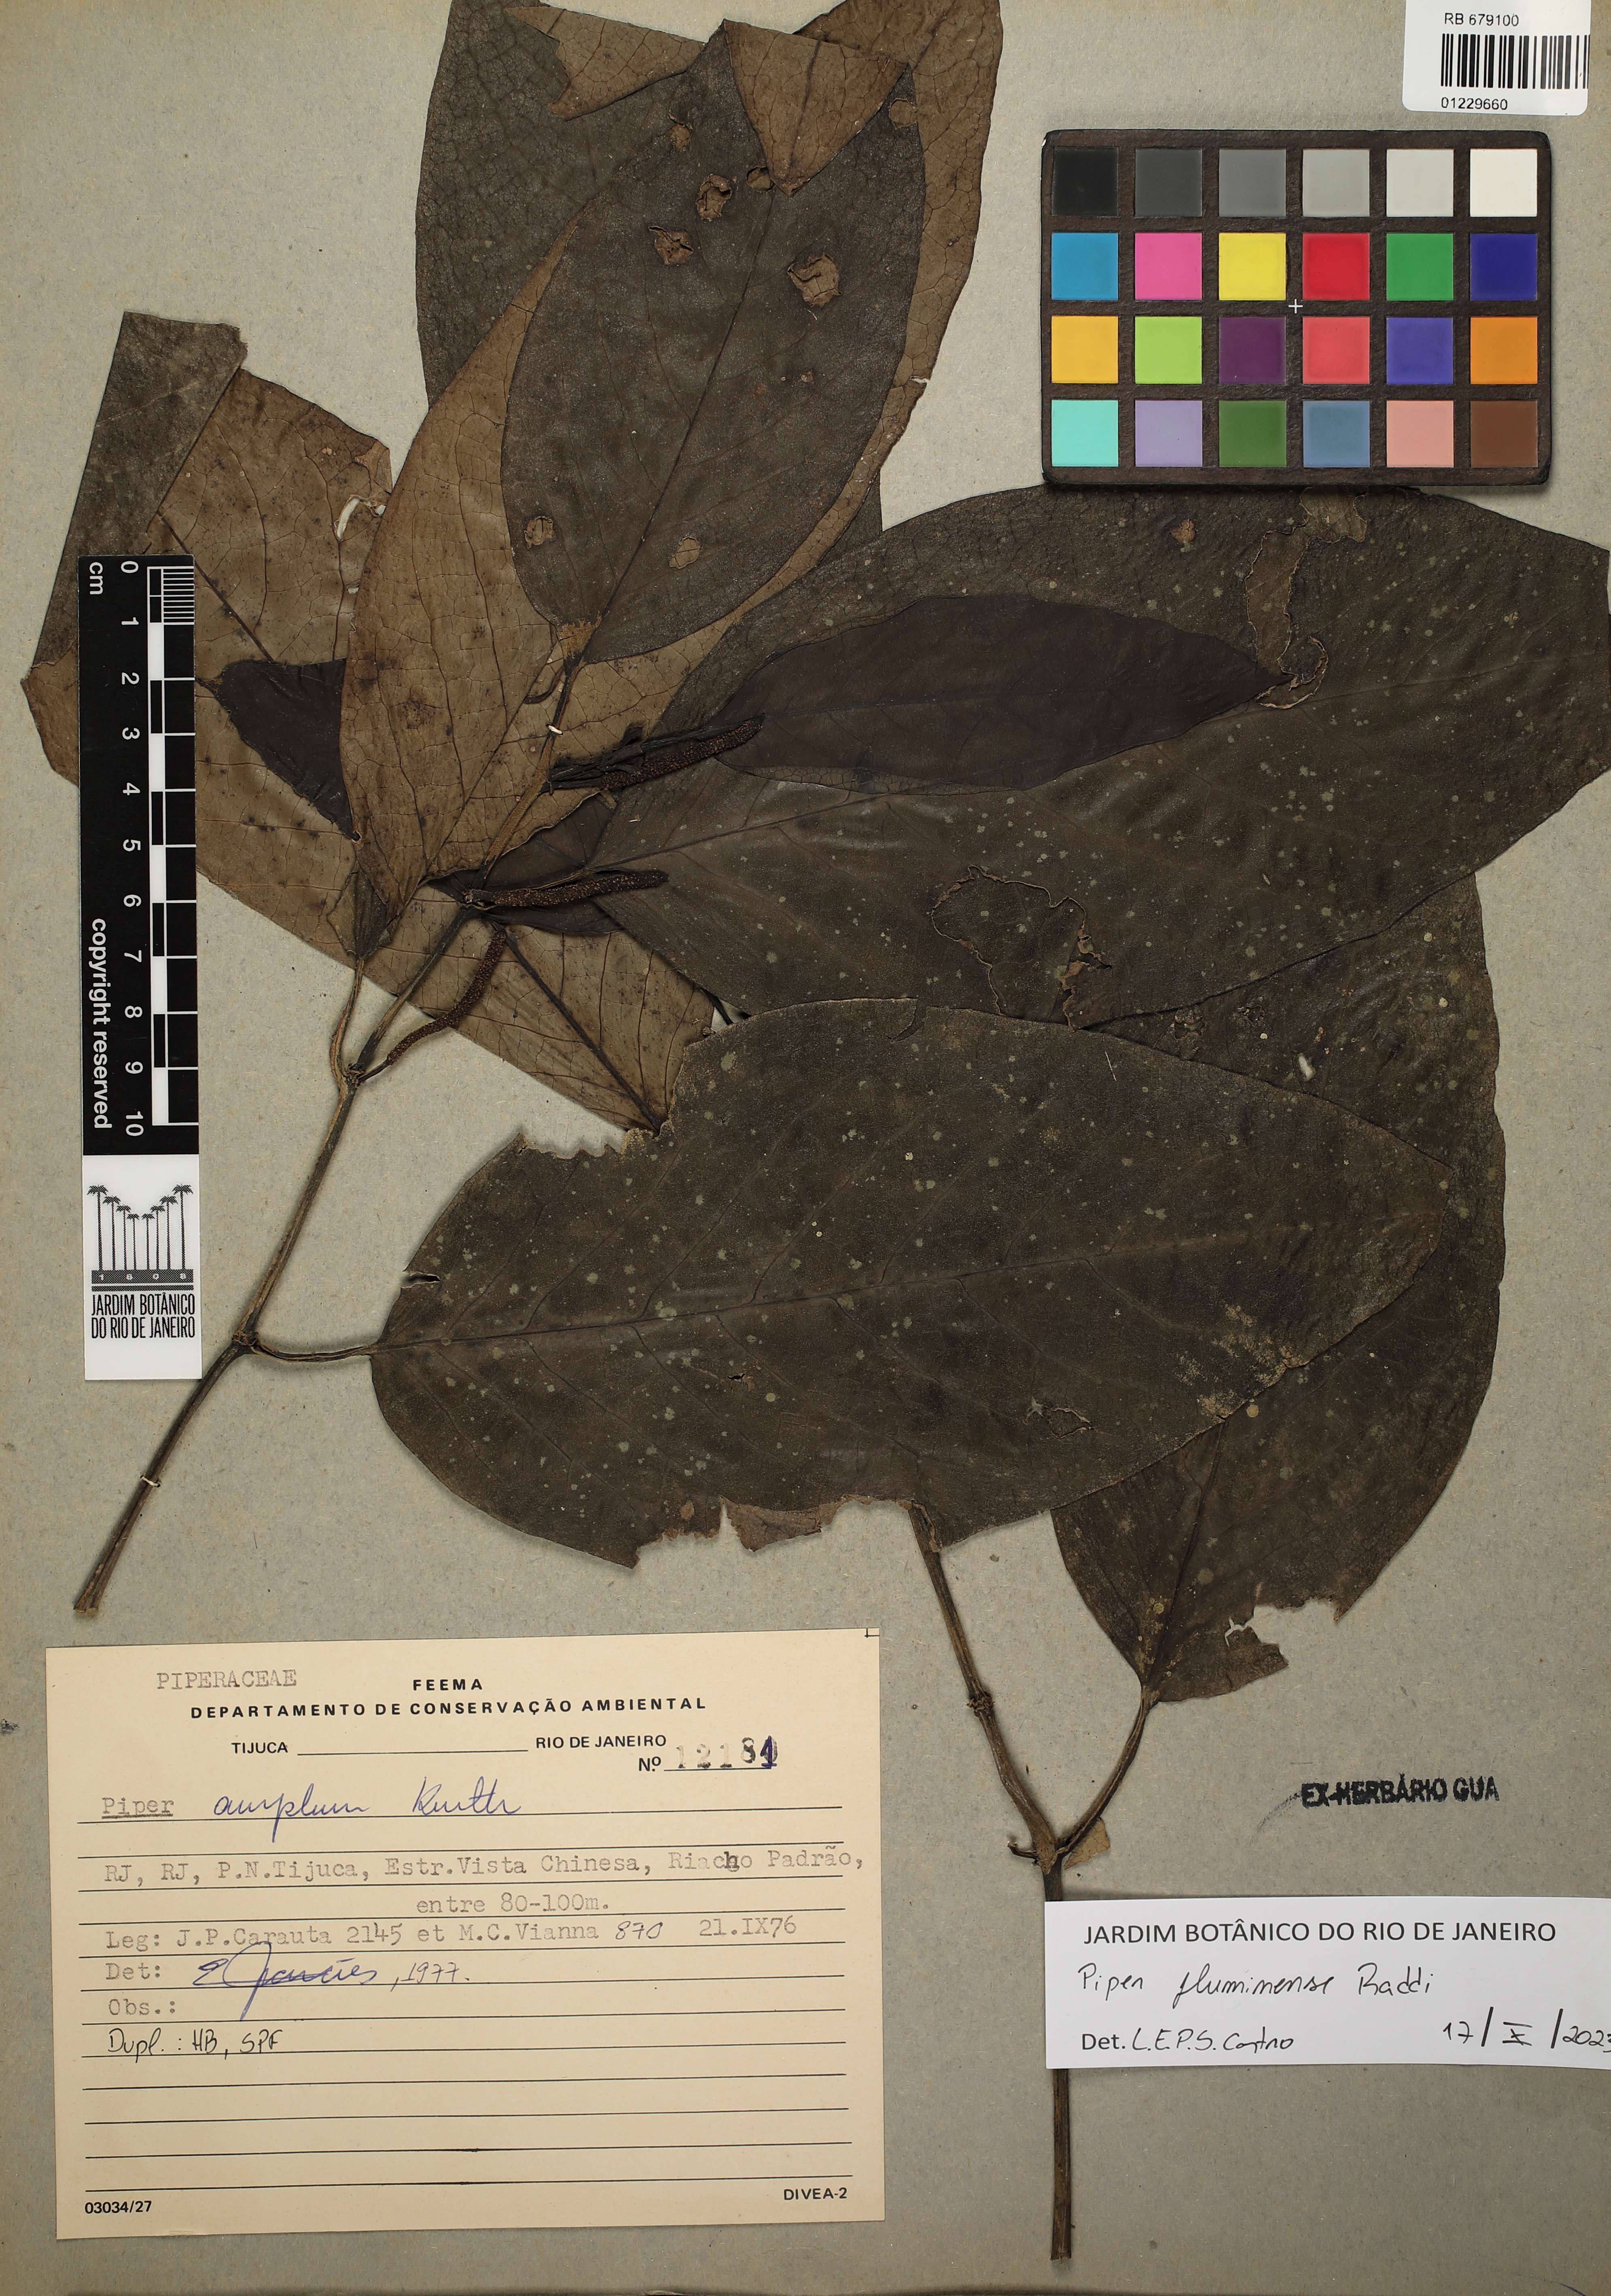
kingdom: Plantae
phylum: Tracheophyta
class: Magnoliopsida
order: Piperales
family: Piperaceae
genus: Piper
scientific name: Piper fluminense
